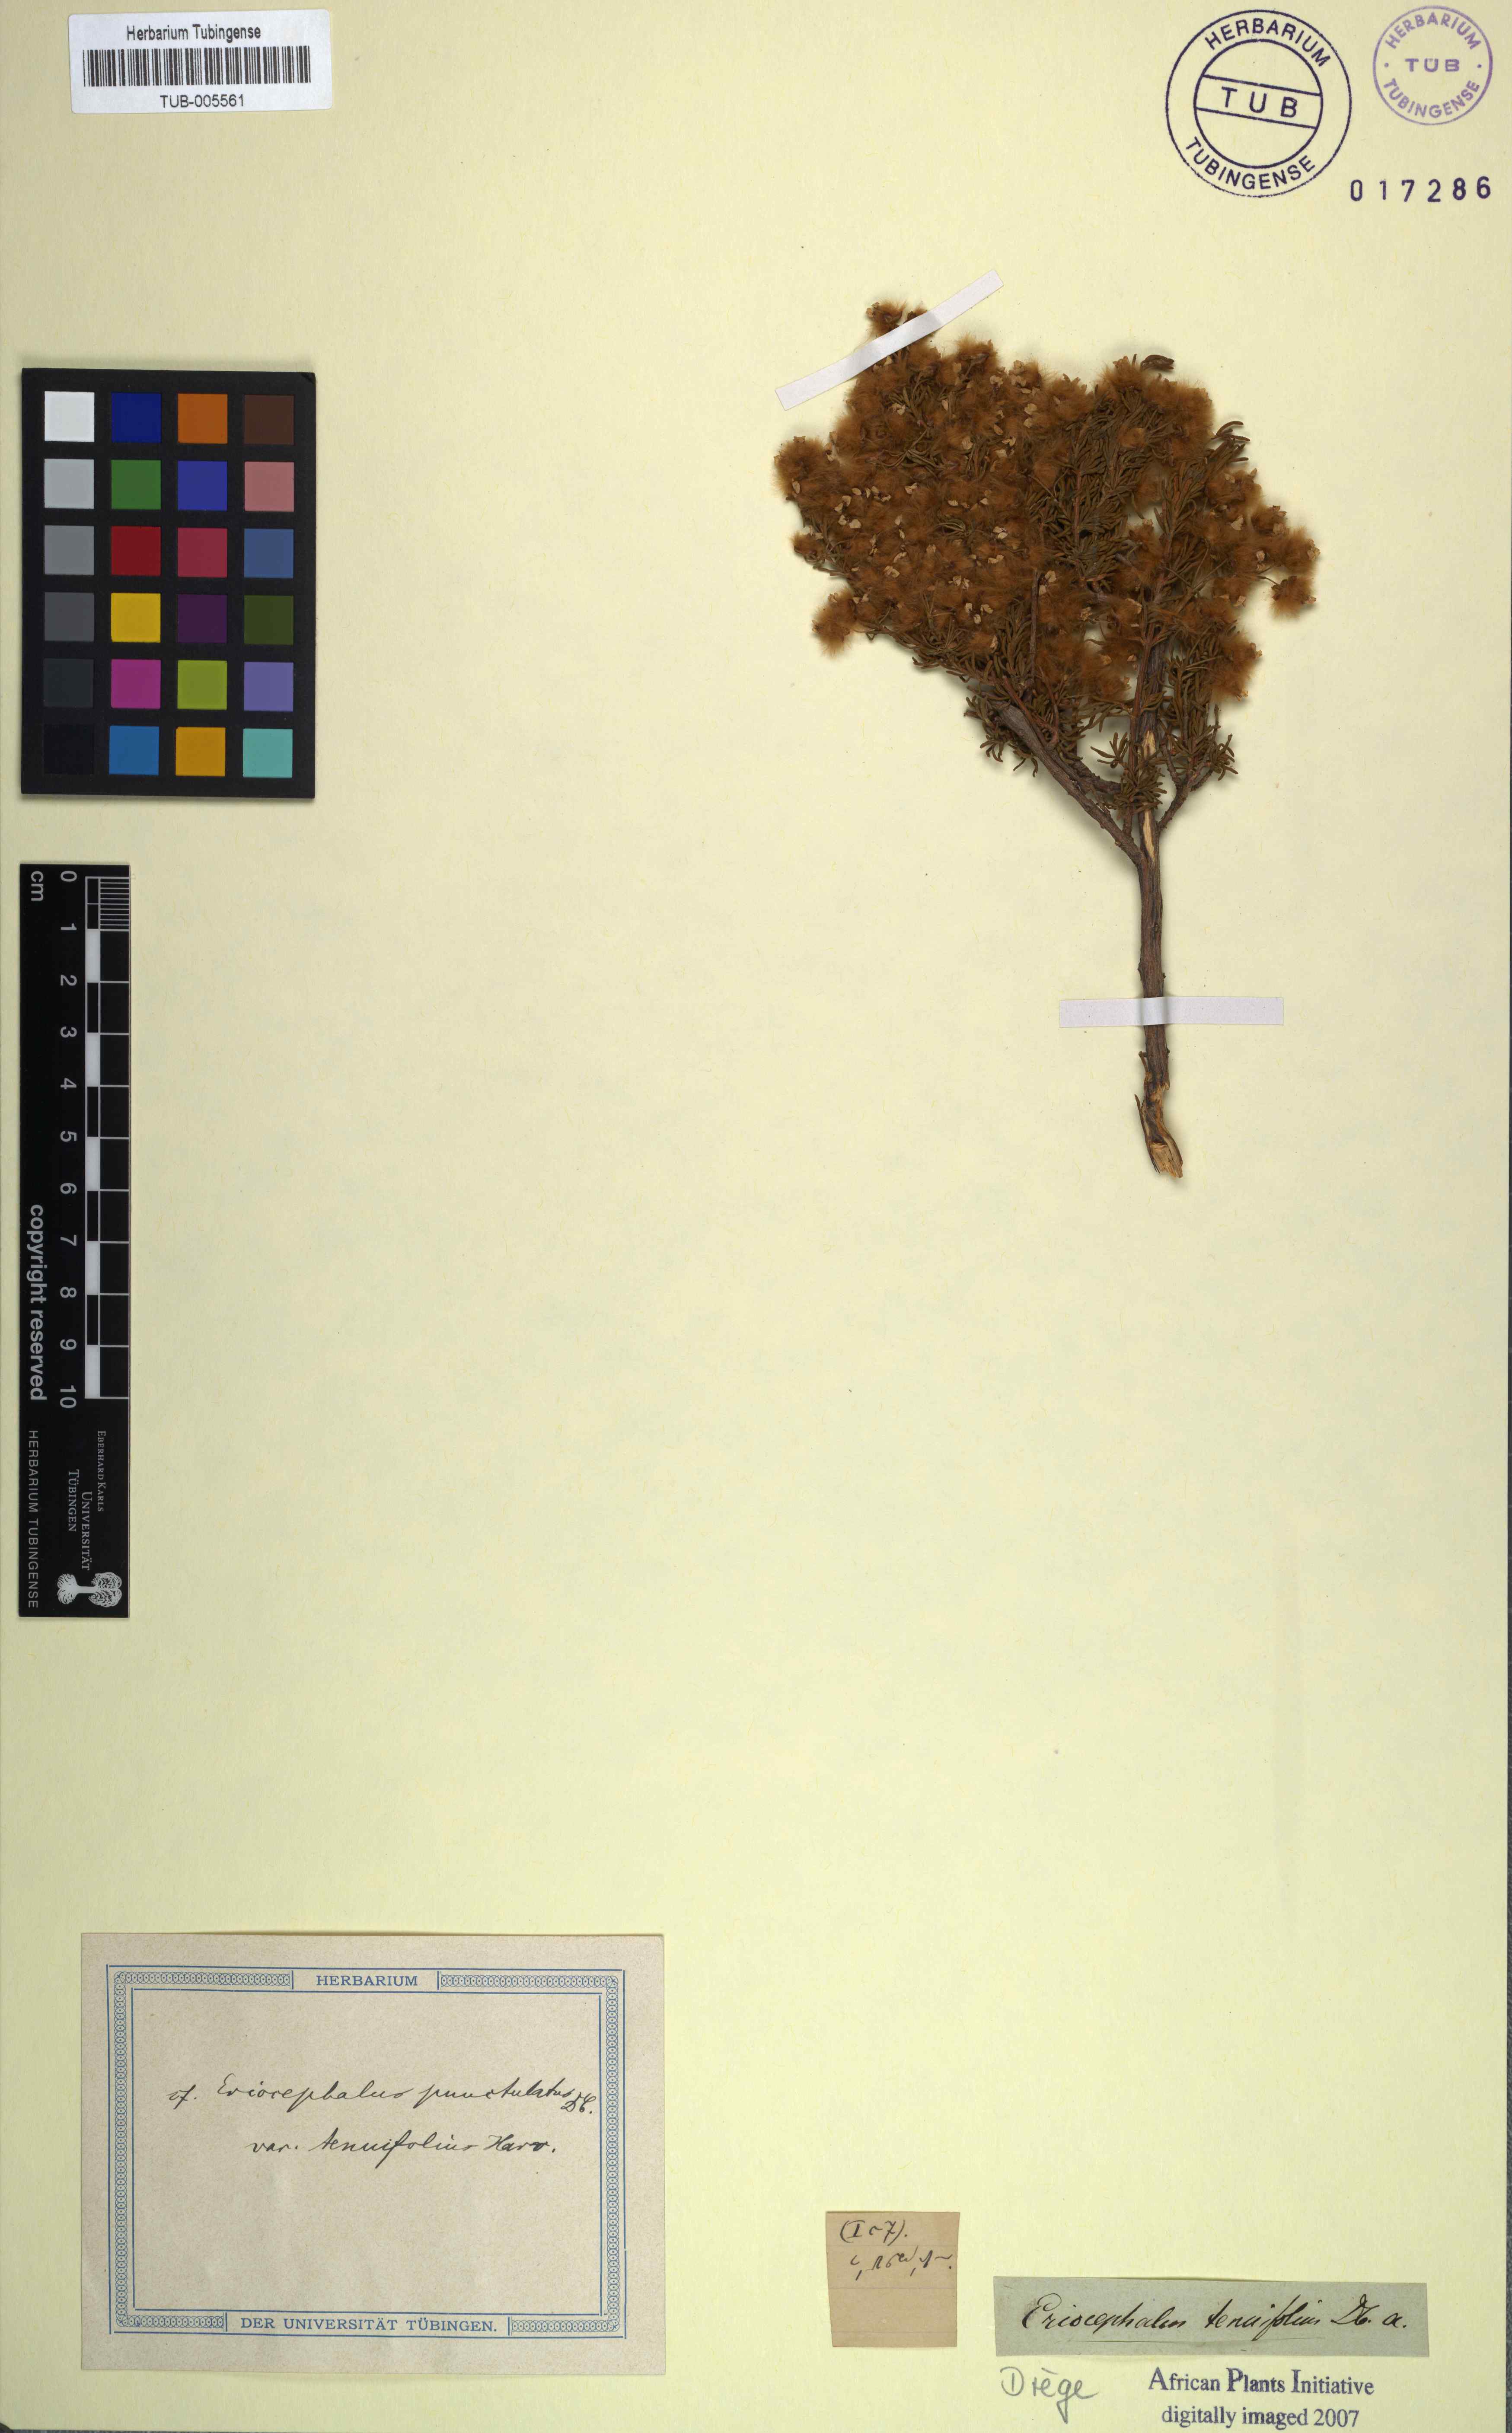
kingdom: Plantae
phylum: Tracheophyta
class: Magnoliopsida
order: Asterales
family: Asteraceae
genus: Eriocephalus
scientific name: Eriocephalus tenuifolius
